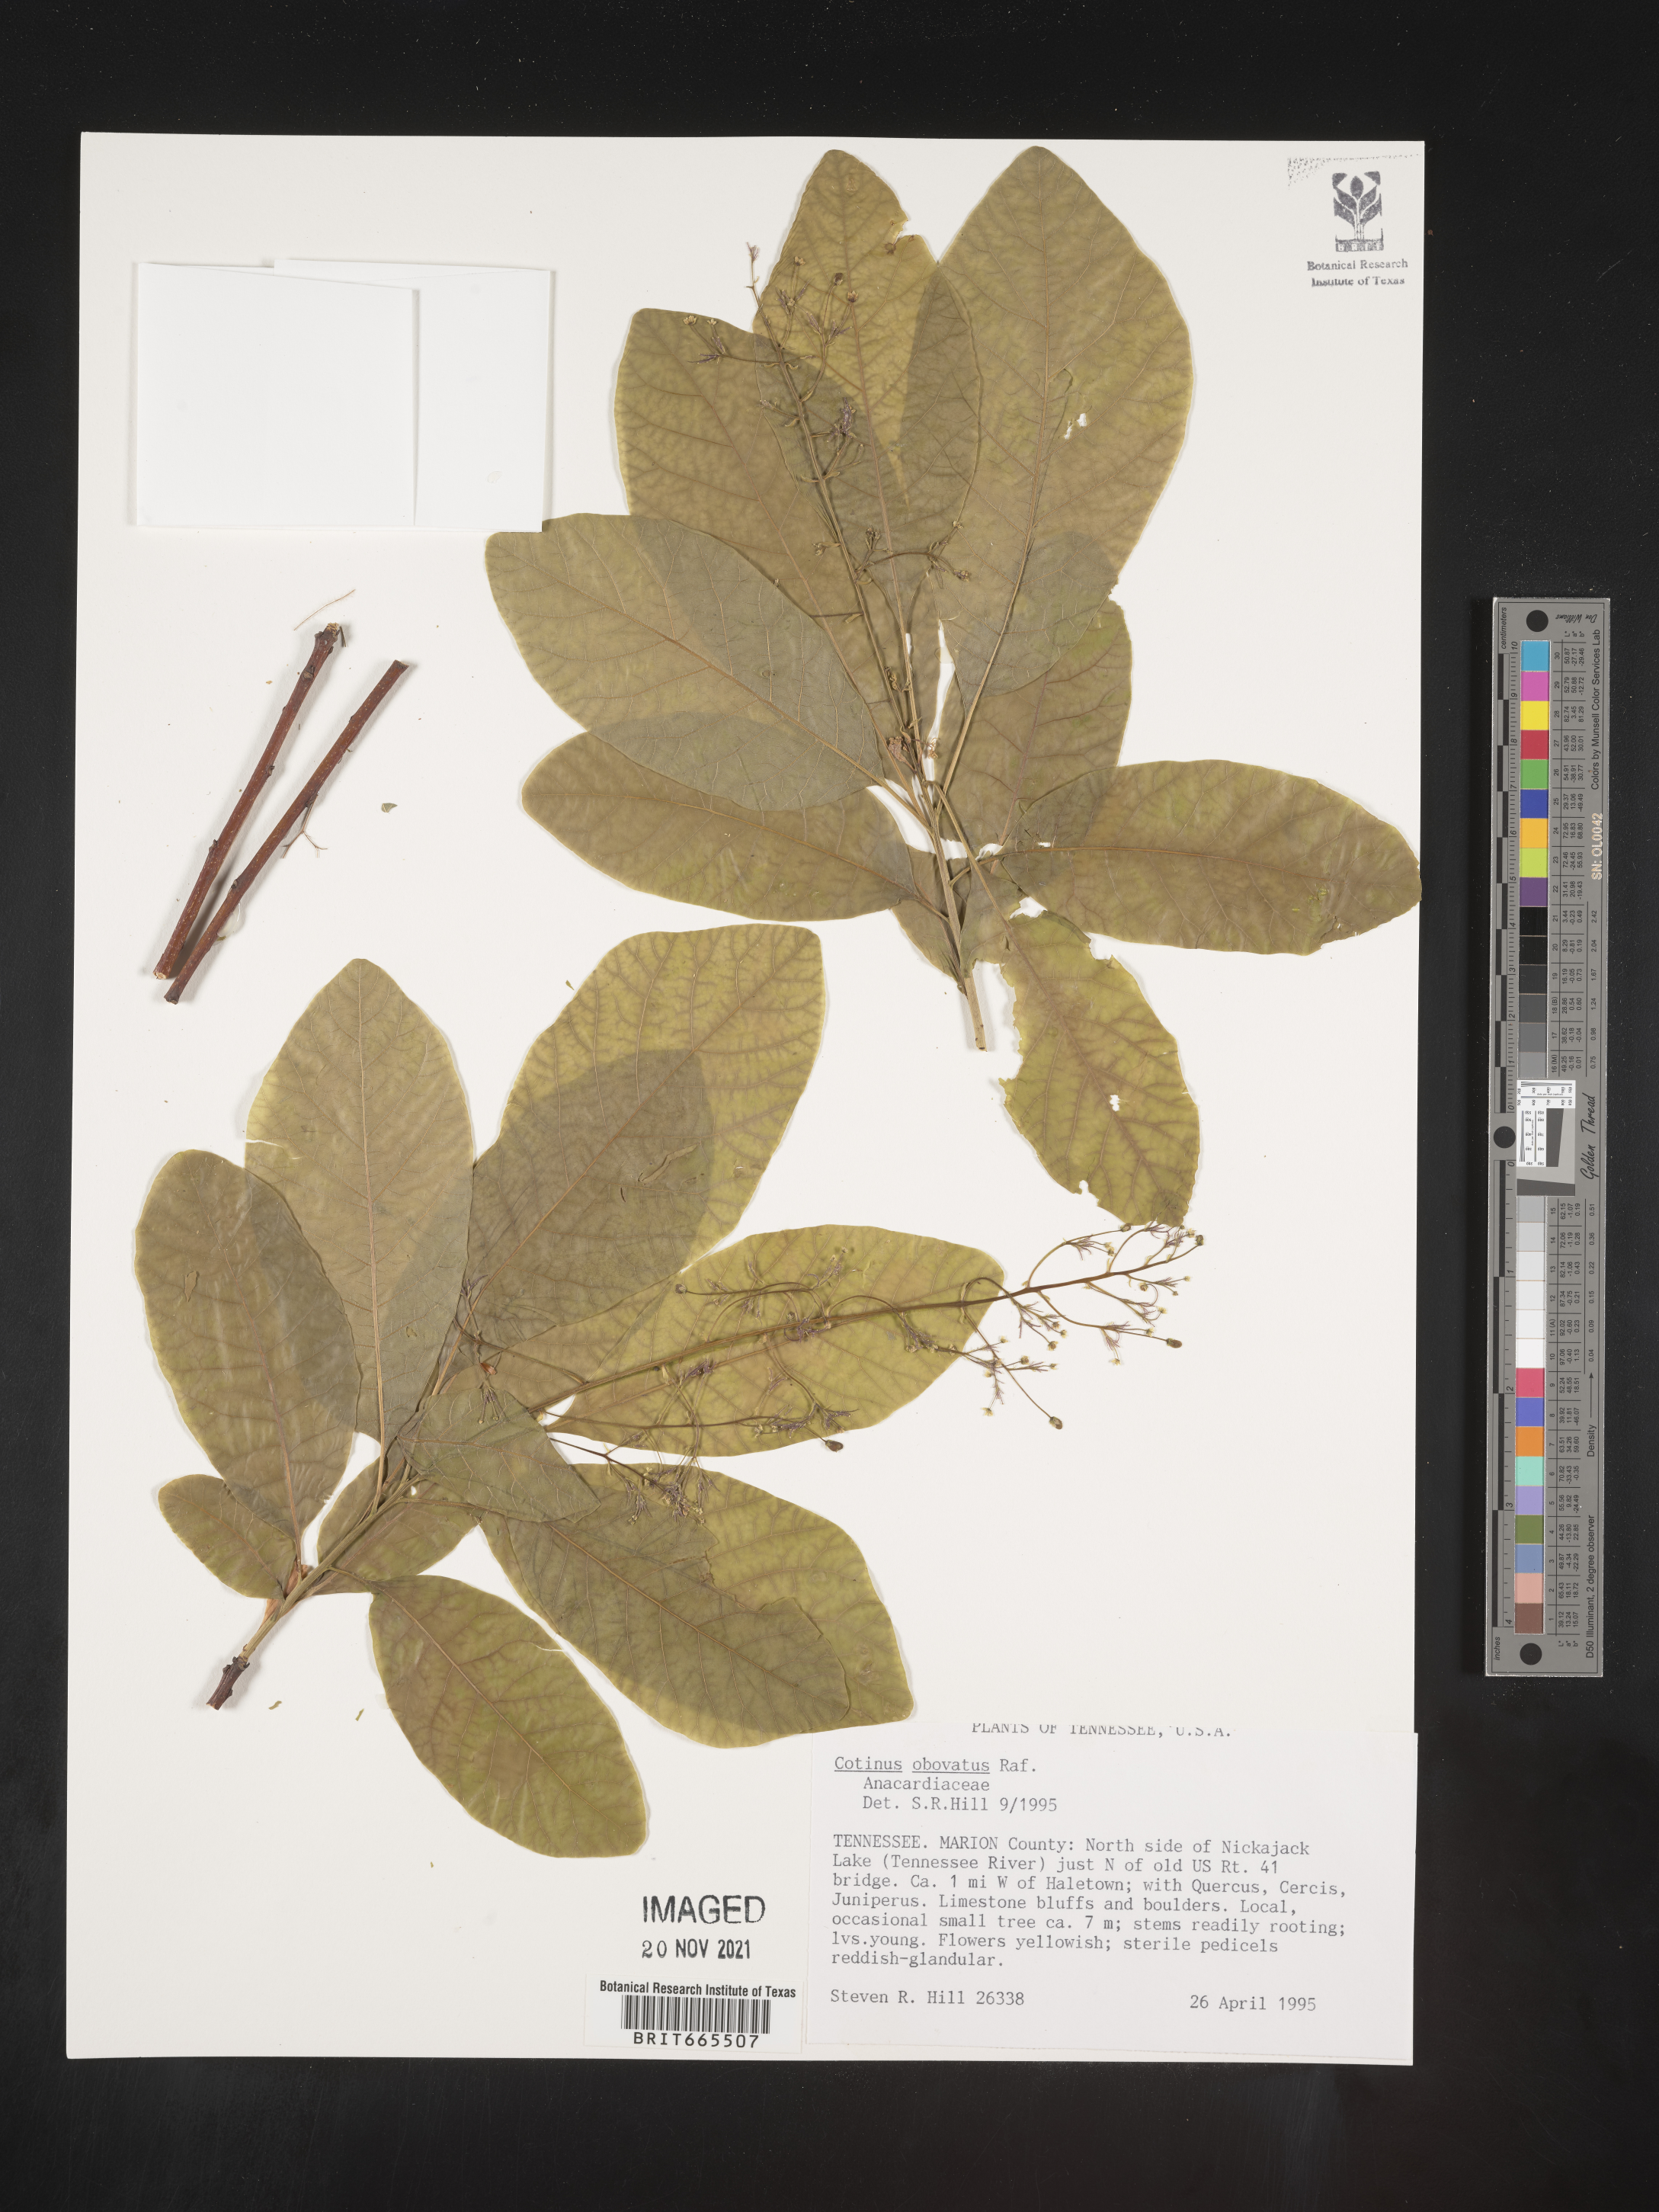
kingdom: Plantae
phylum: Tracheophyta
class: Magnoliopsida
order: Sapindales
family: Anacardiaceae
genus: Cotinus
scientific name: Cotinus obovatus
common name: Chittamwood
